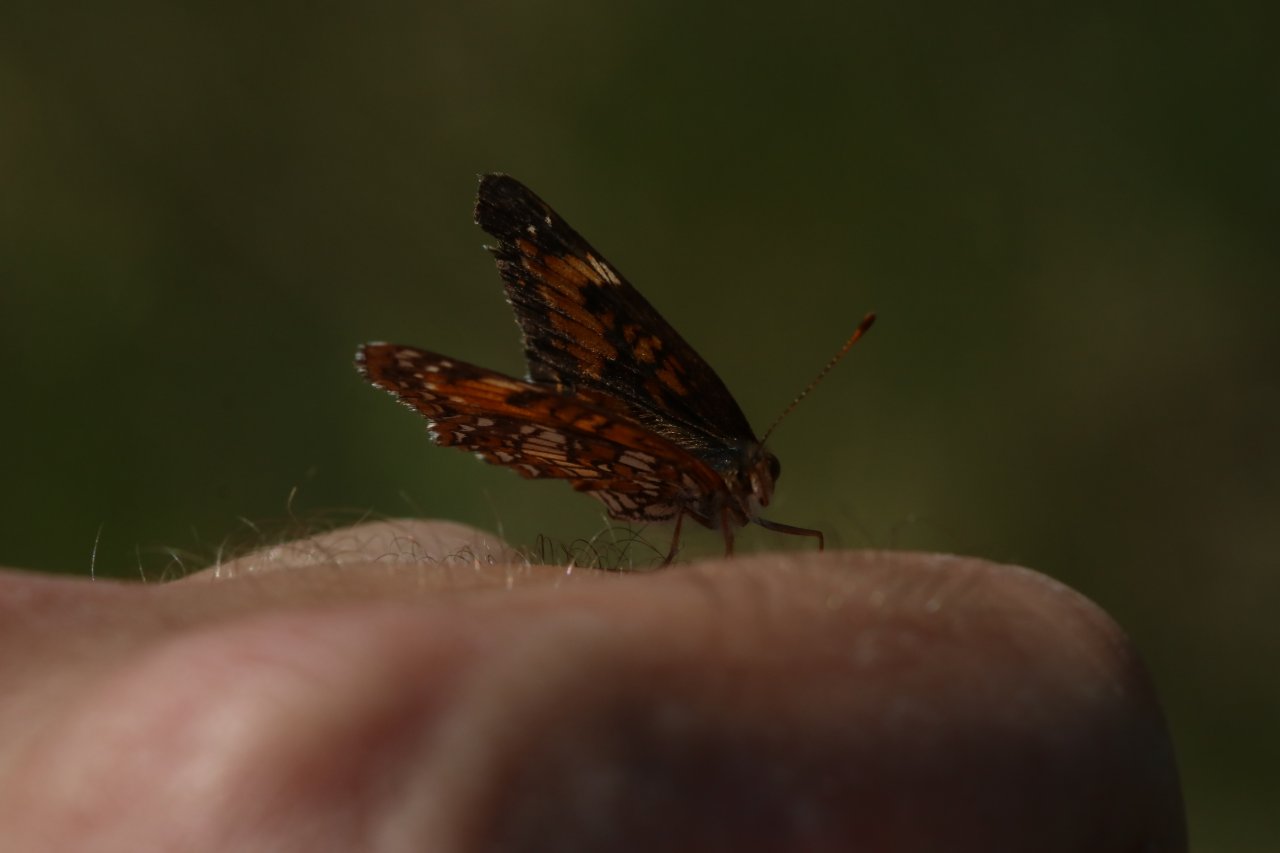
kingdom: Animalia
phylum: Arthropoda
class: Insecta
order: Lepidoptera
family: Nymphalidae
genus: Chlosyne
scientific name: Chlosyne harrisii
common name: Harris's Checkerspot
